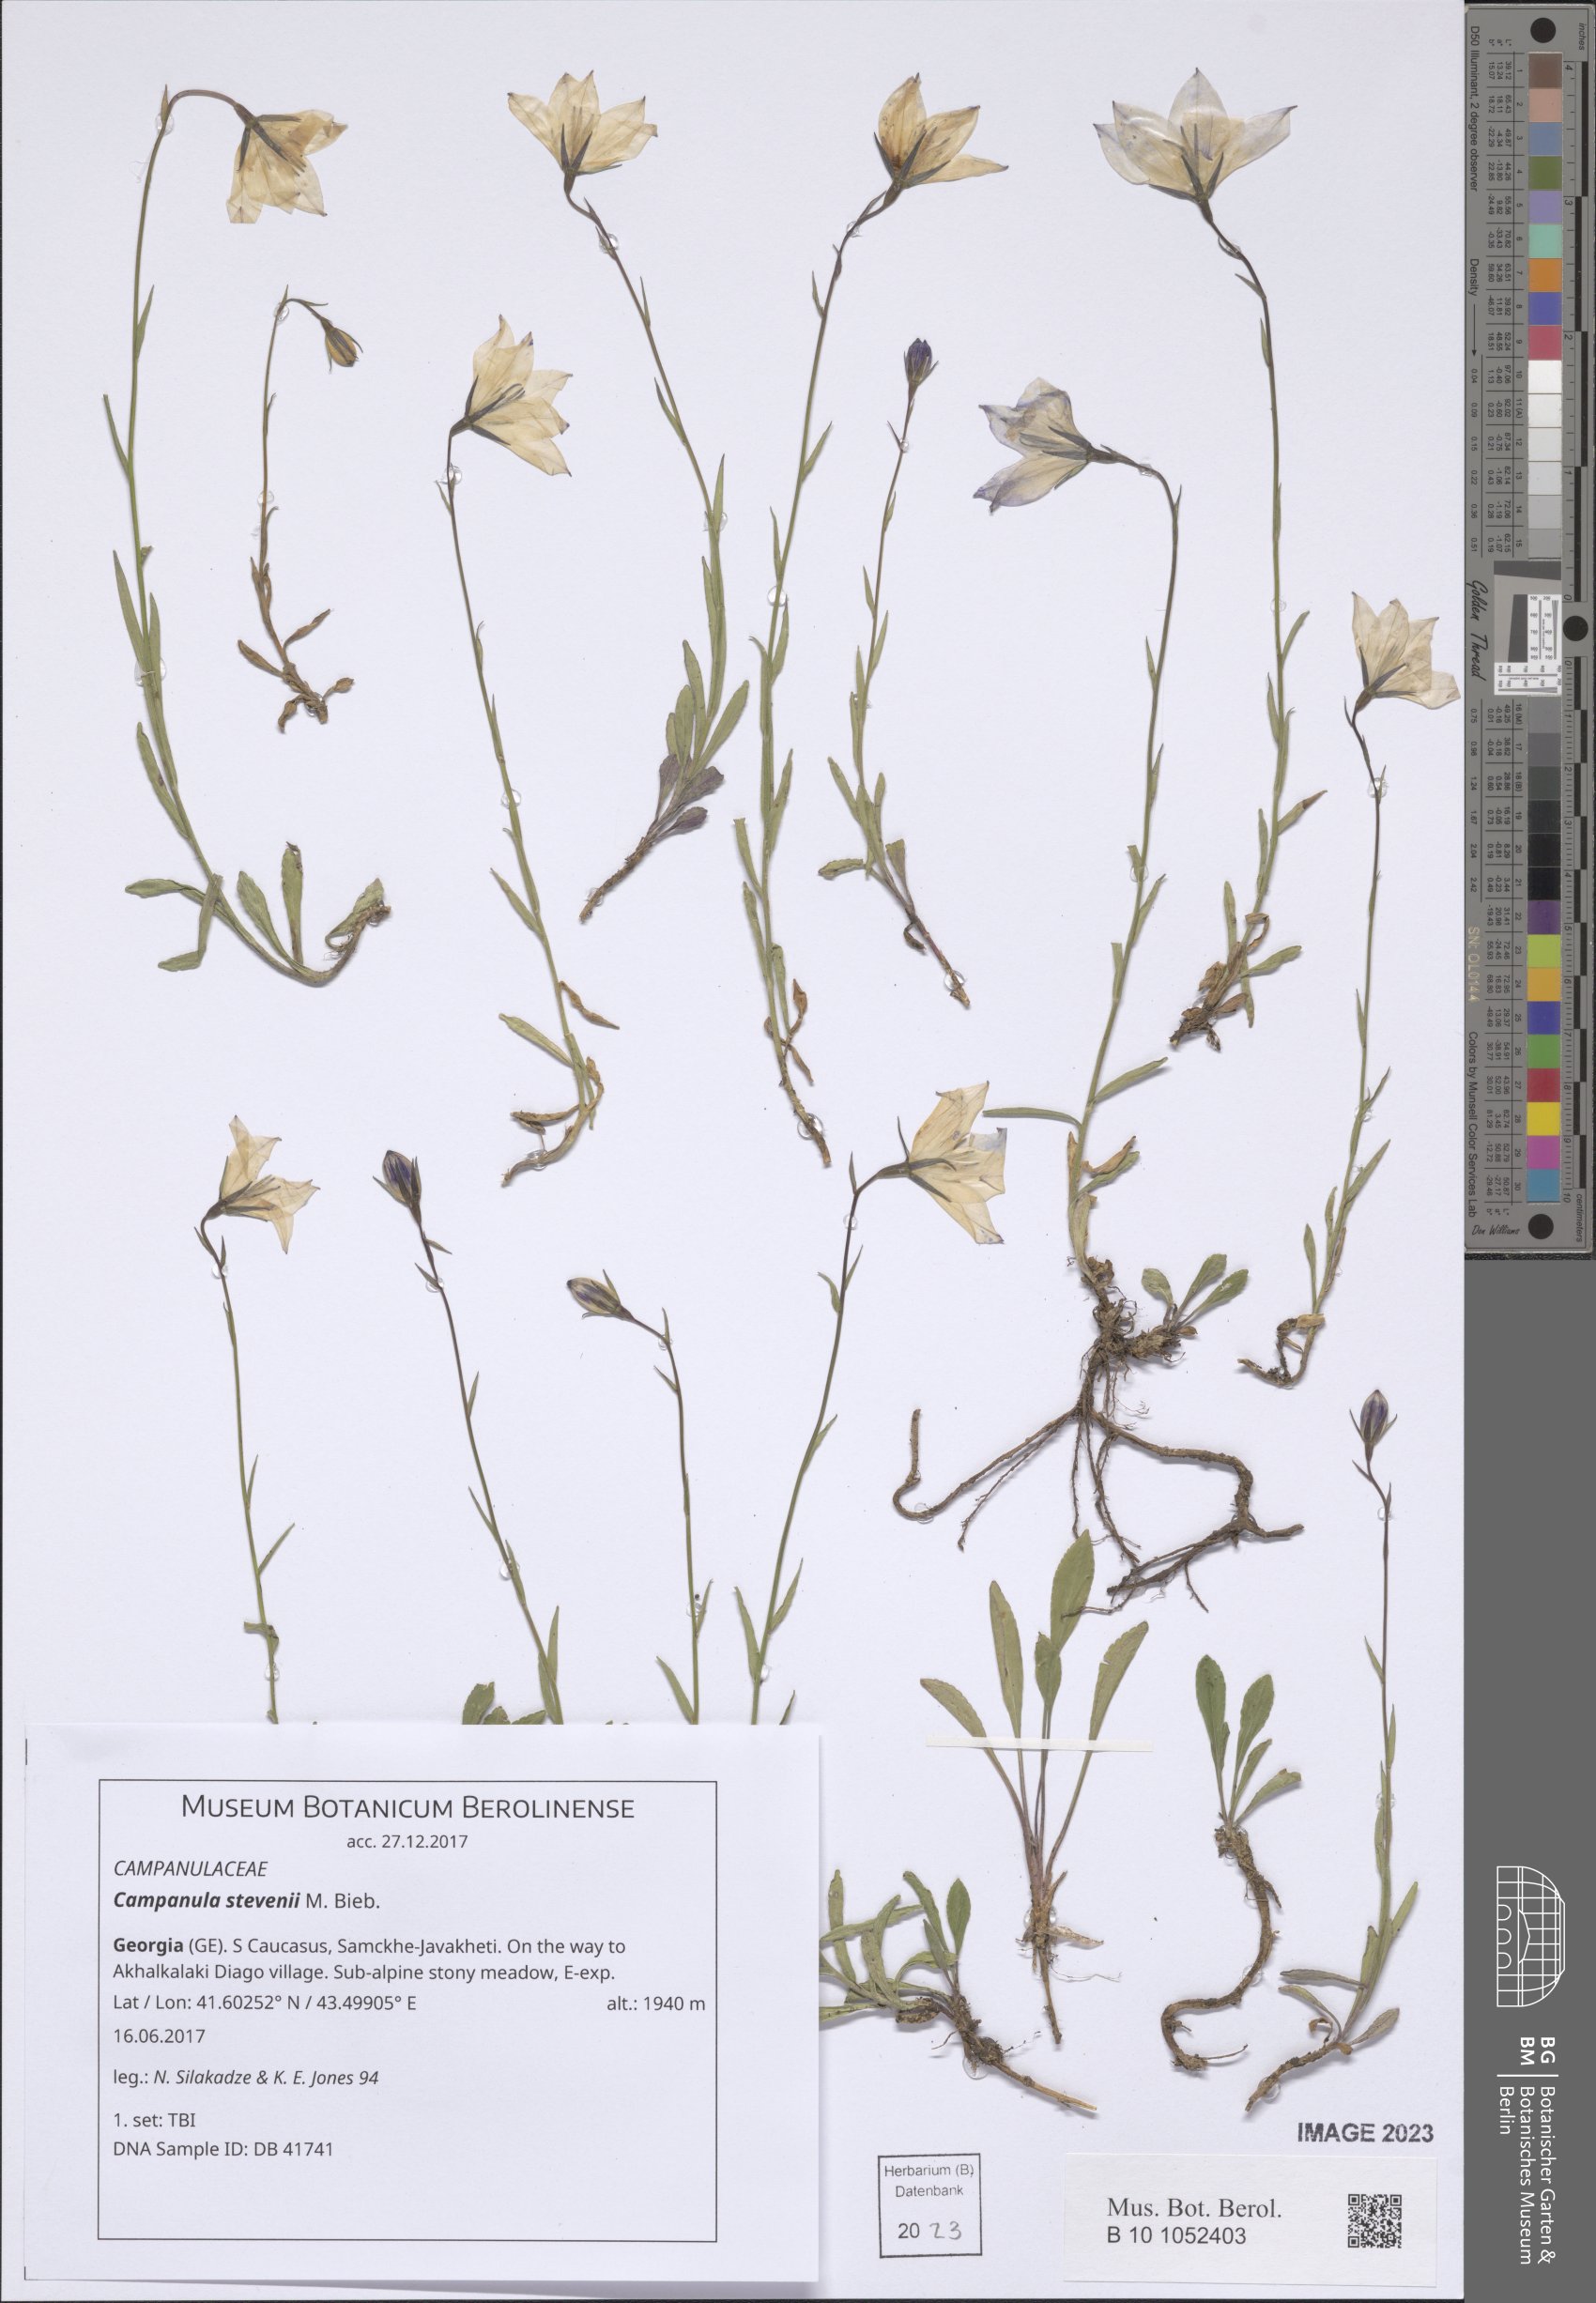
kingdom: Plantae
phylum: Tracheophyta
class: Magnoliopsida
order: Asterales
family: Campanulaceae
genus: Campanula
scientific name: Campanula stevenii
